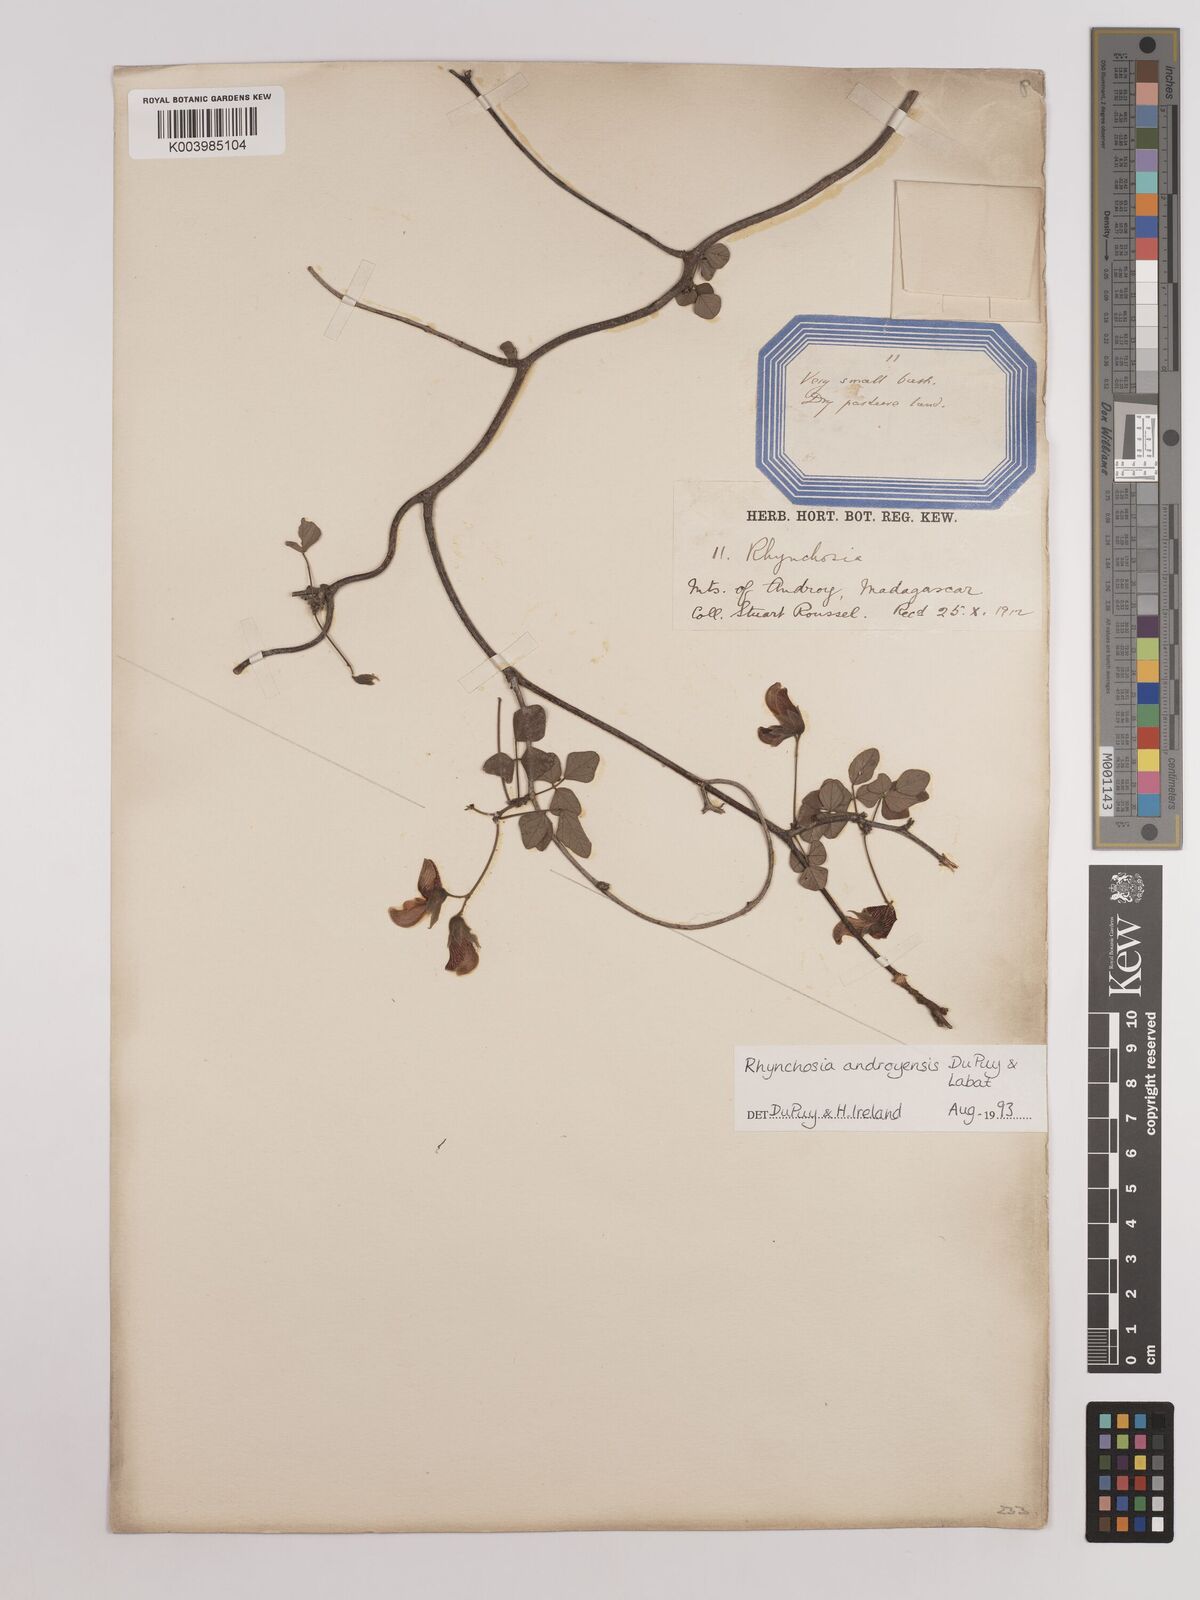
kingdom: Plantae
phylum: Tracheophyta
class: Magnoliopsida
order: Fabales
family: Fabaceae
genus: Rhynchosia
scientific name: Rhynchosia androyensis
